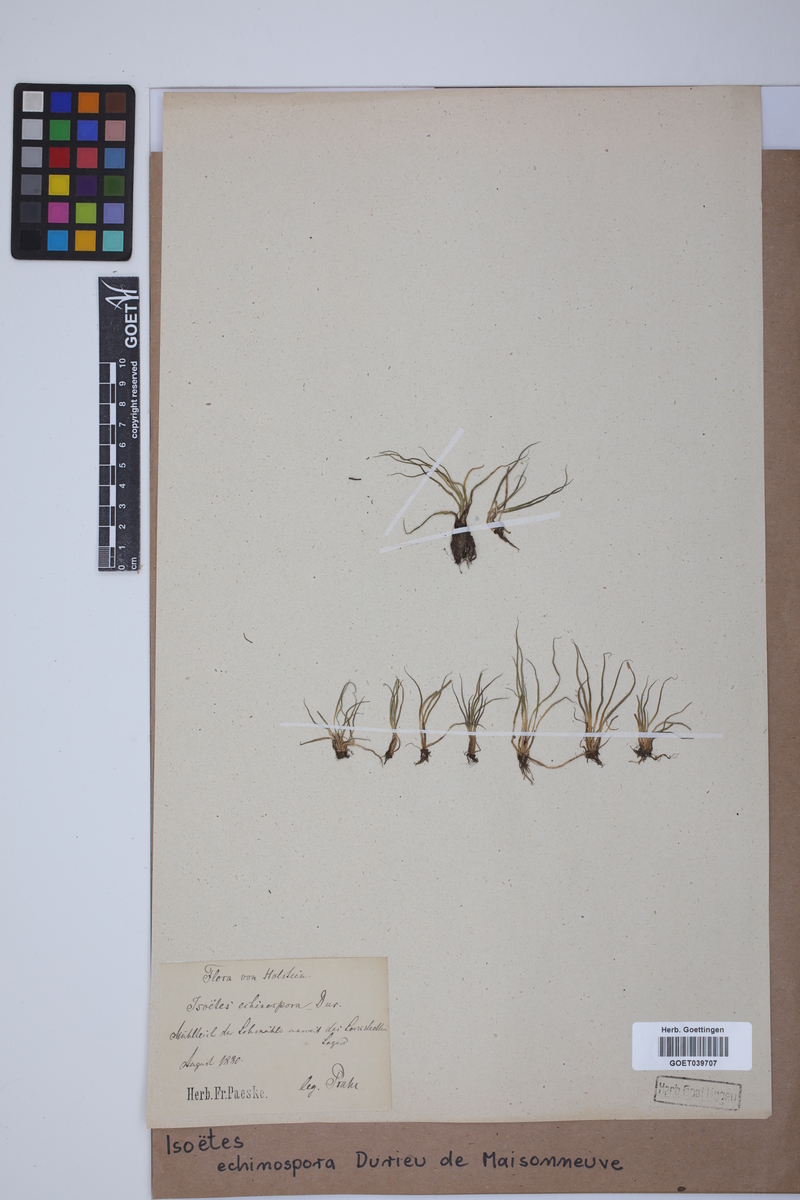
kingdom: Plantae
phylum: Tracheophyta
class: Lycopodiopsida
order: Isoetales
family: Isoetaceae
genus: Isoetes
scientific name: Isoetes echinospora
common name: Spring quillwort
